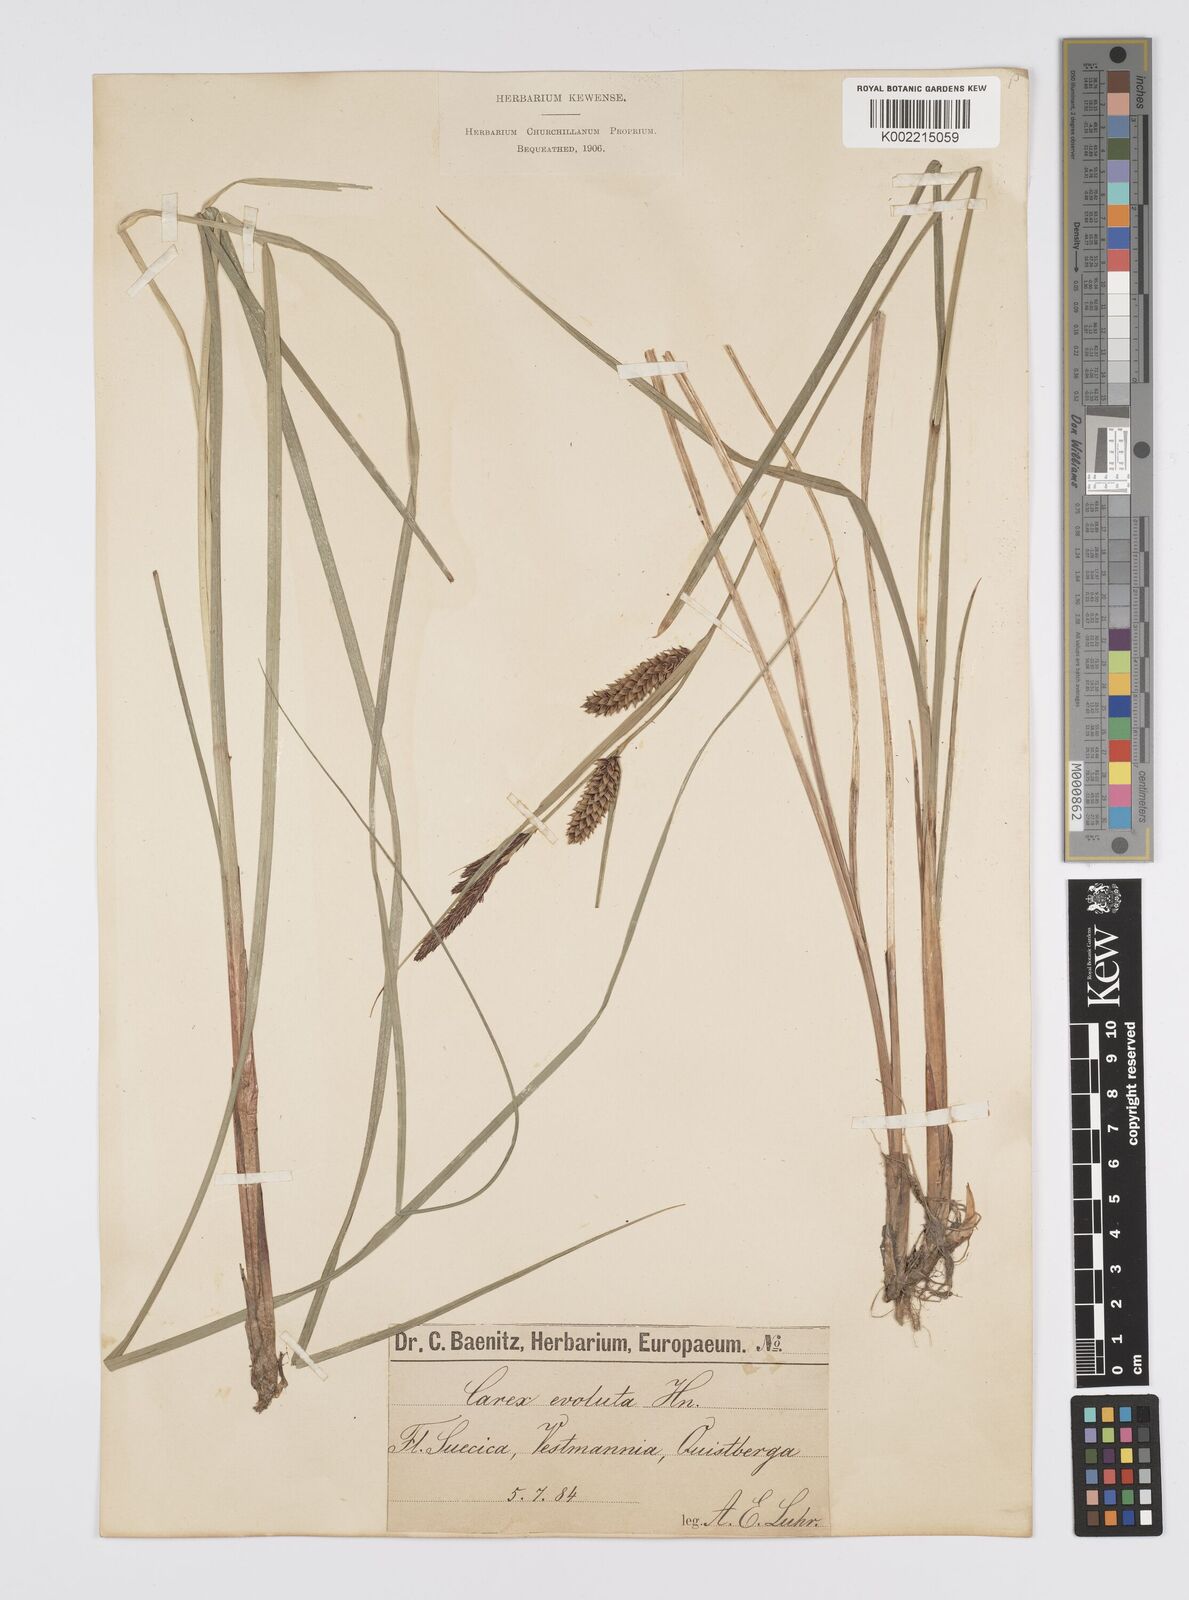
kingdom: Plantae
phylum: Tracheophyta
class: Liliopsida
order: Poales
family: Cyperaceae
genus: Carex
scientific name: Carex evoluta
